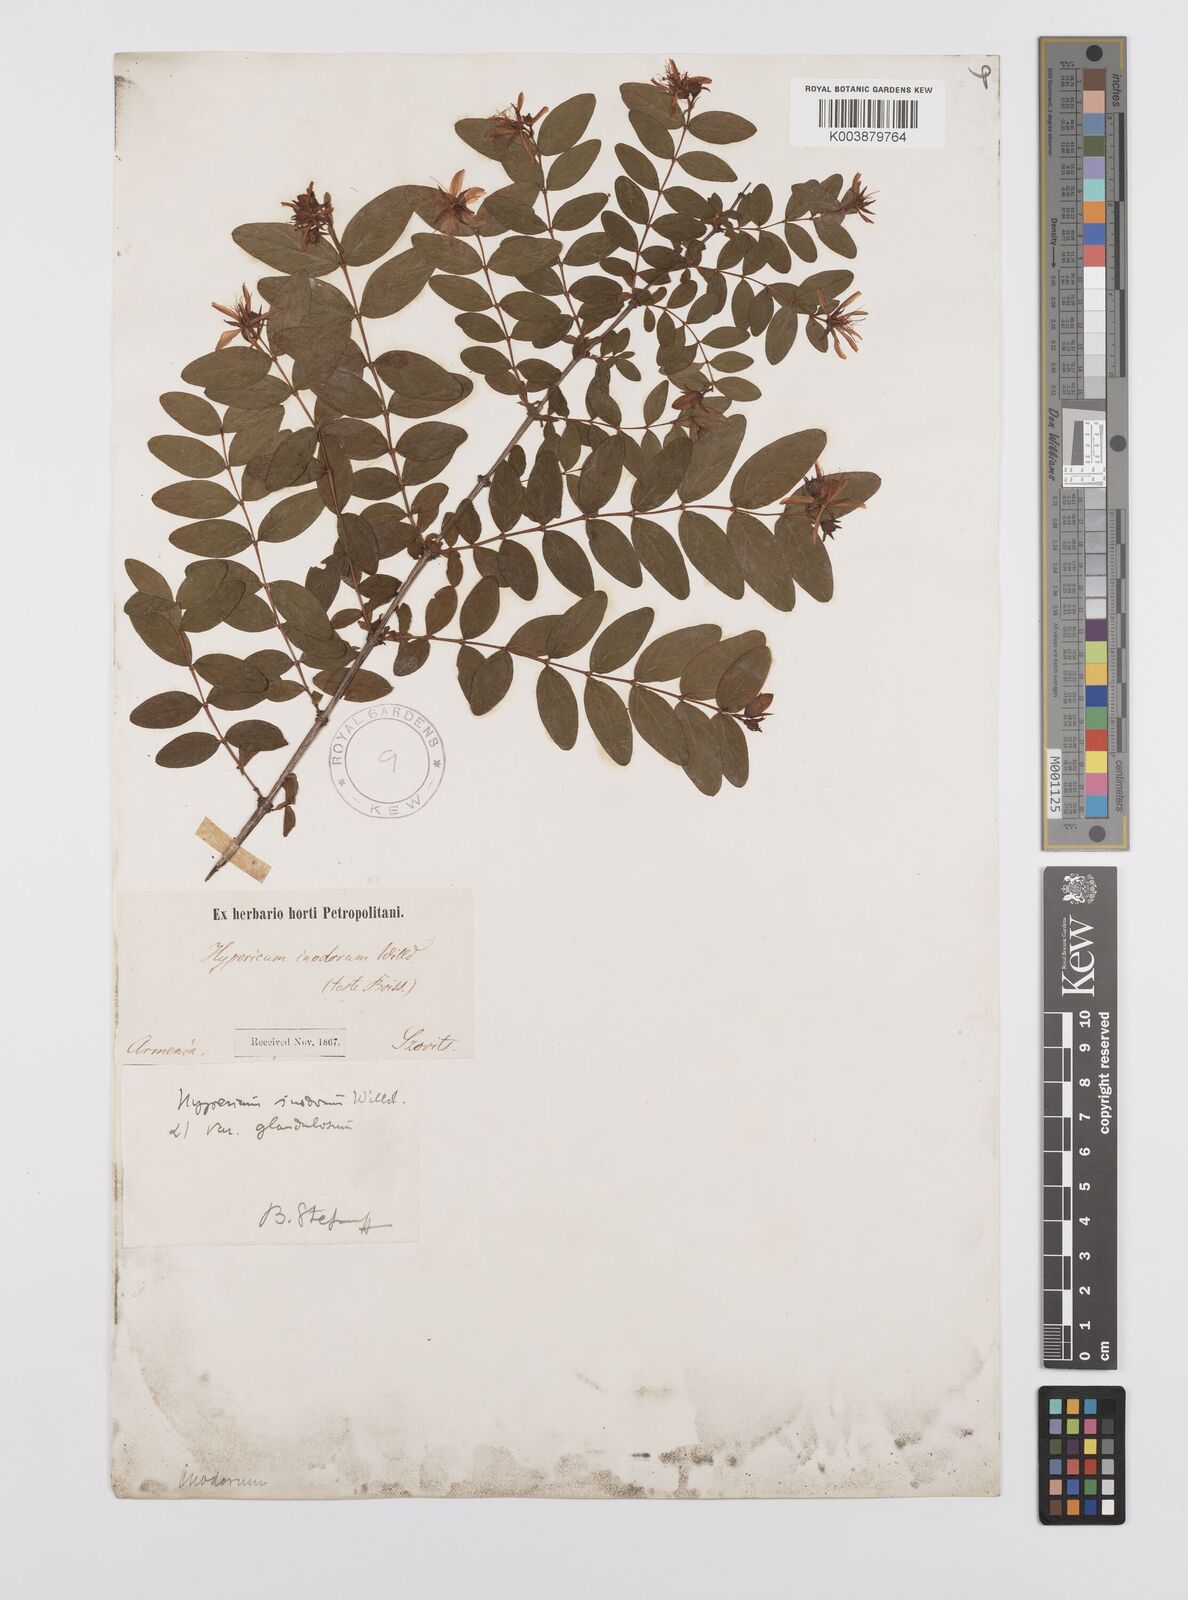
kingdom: Plantae
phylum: Tracheophyta
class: Magnoliopsida
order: Malpighiales
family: Hypericaceae
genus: Hypericum
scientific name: Hypericum xylosteifolium
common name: Turkish tutsan
